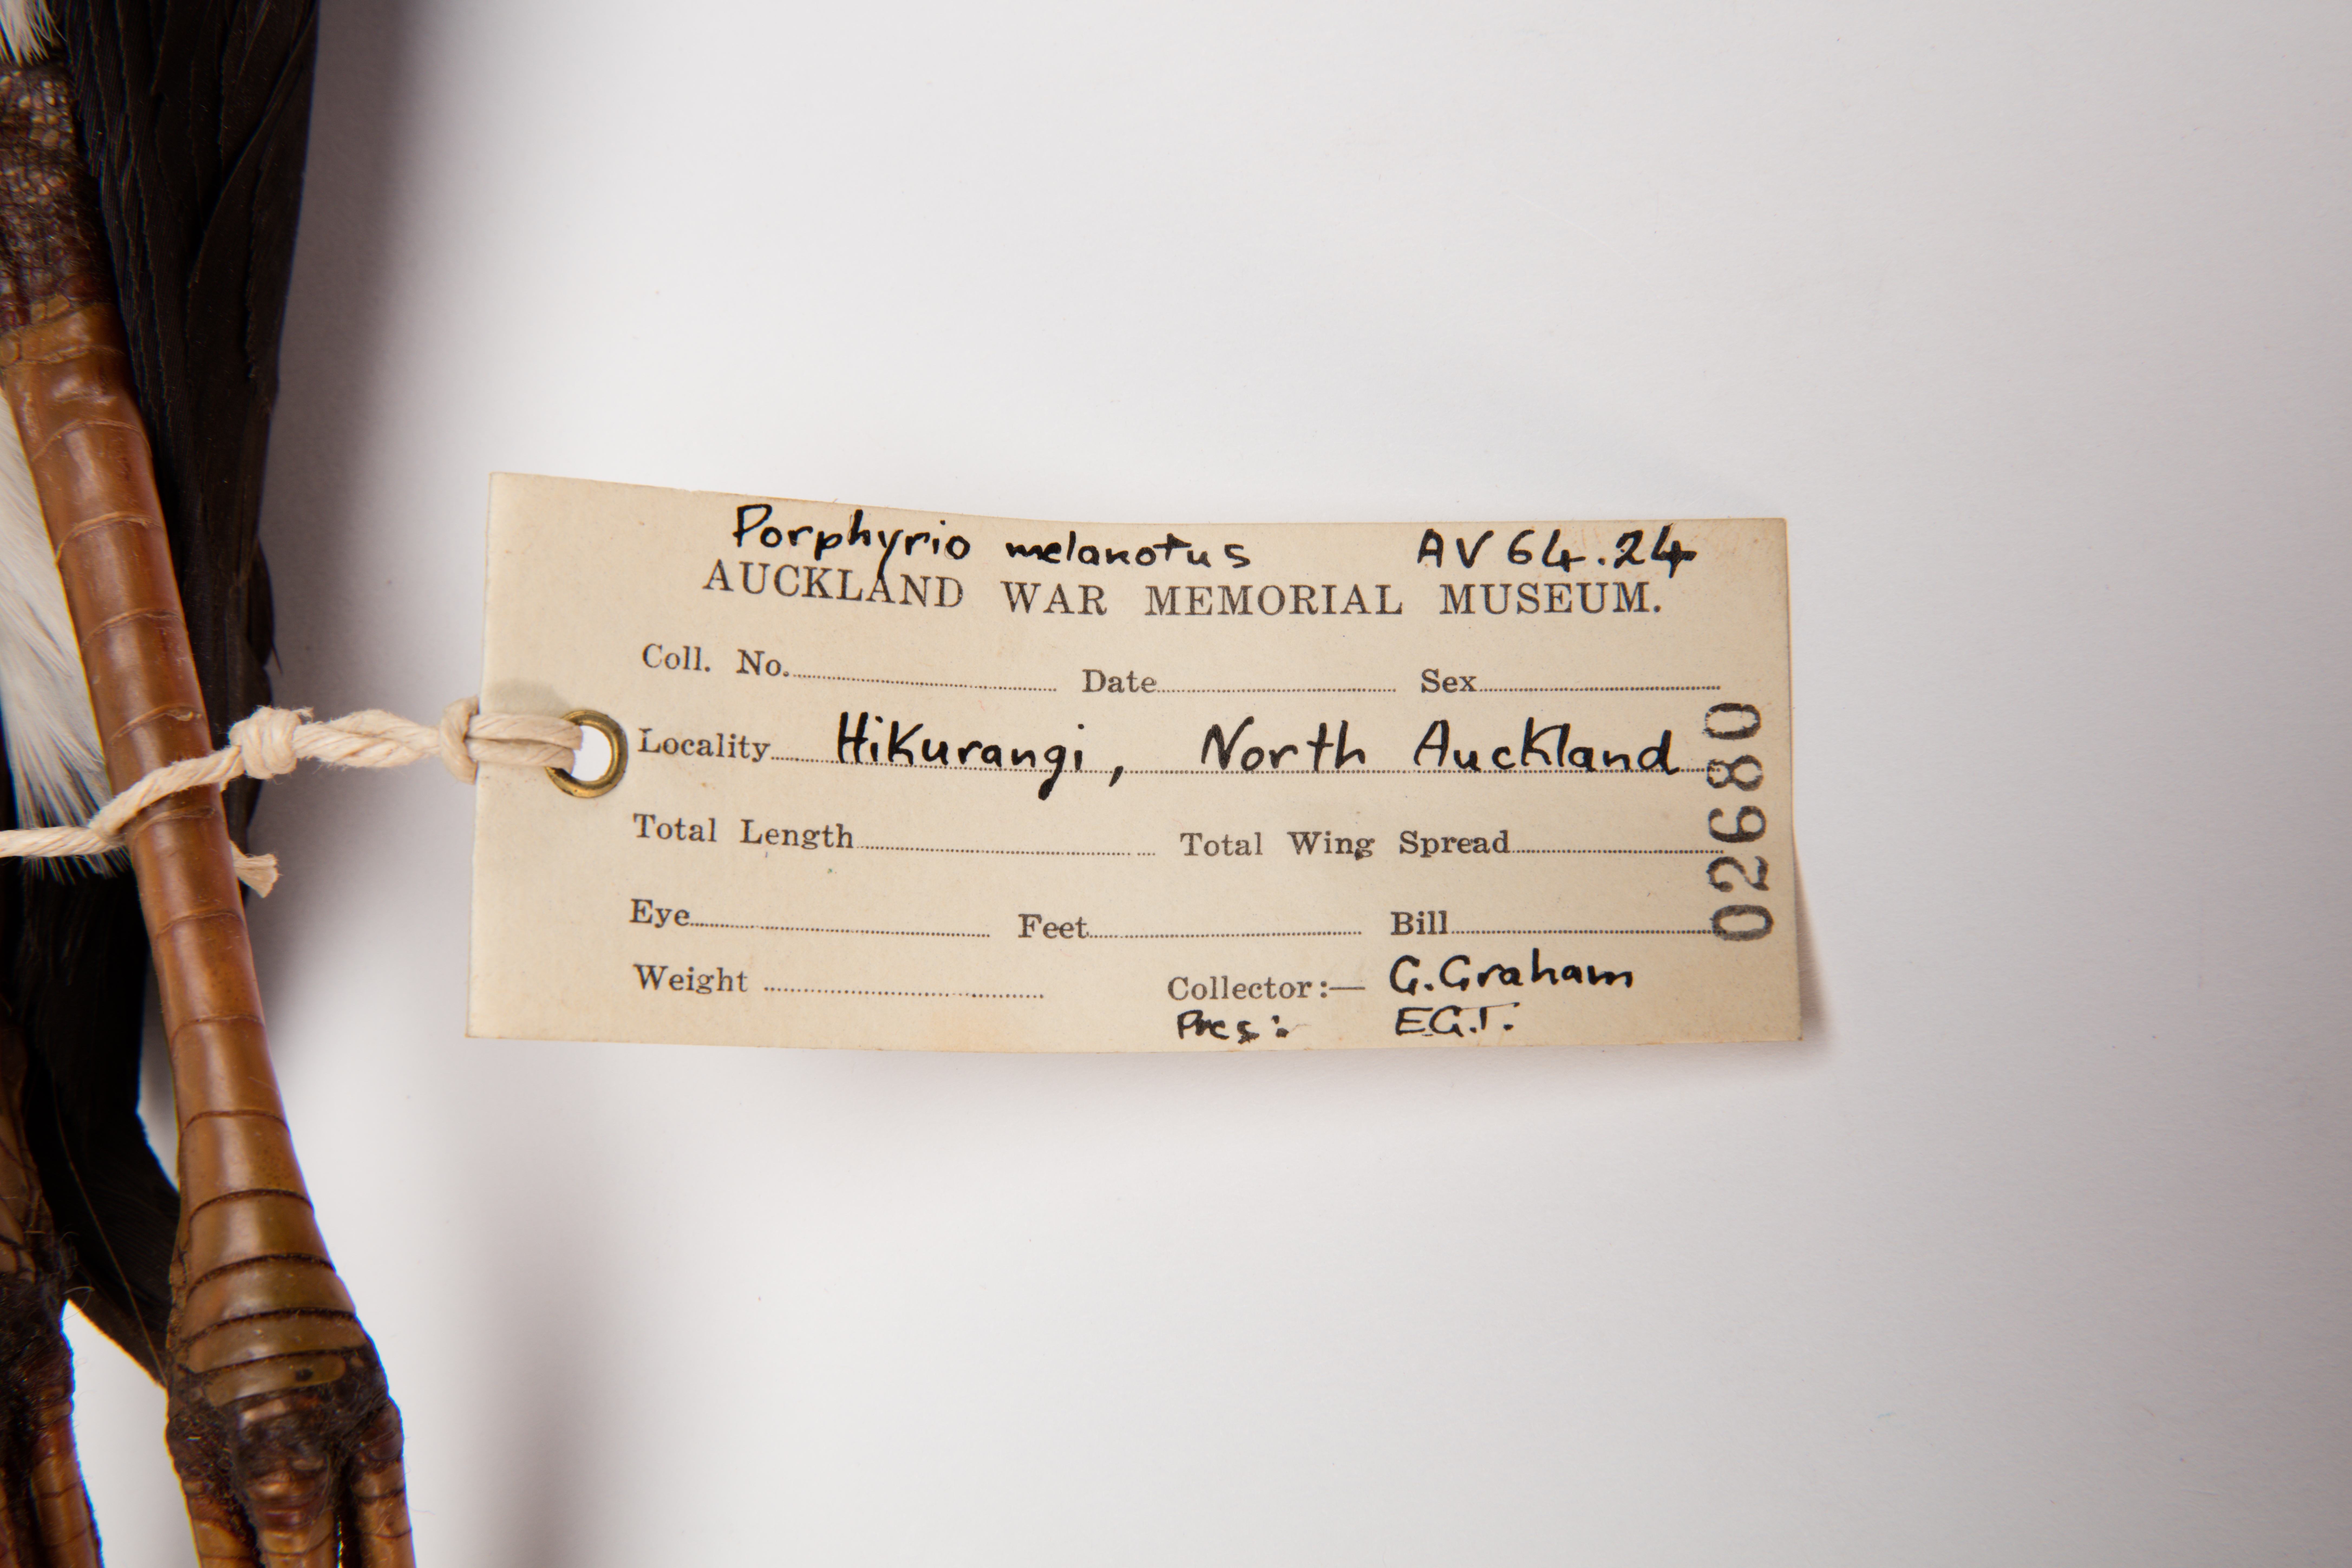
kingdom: Animalia
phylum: Chordata
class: Aves
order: Gruiformes
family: Rallidae
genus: Porphyrio
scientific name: Porphyrio melanotus
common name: Australasian swamphen
